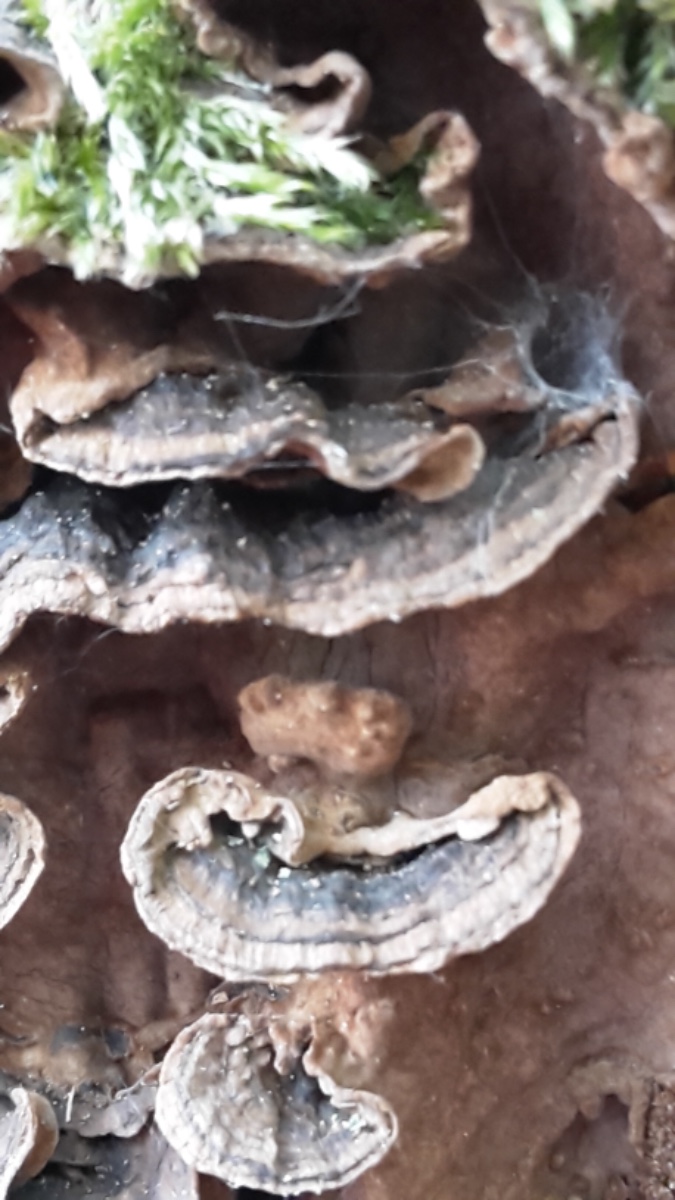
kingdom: Fungi
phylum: Basidiomycota
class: Agaricomycetes
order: Hymenochaetales
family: Hymenochaetaceae
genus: Hymenochaete
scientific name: Hymenochaete rubiginosa
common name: stiv ruslædersvamp
